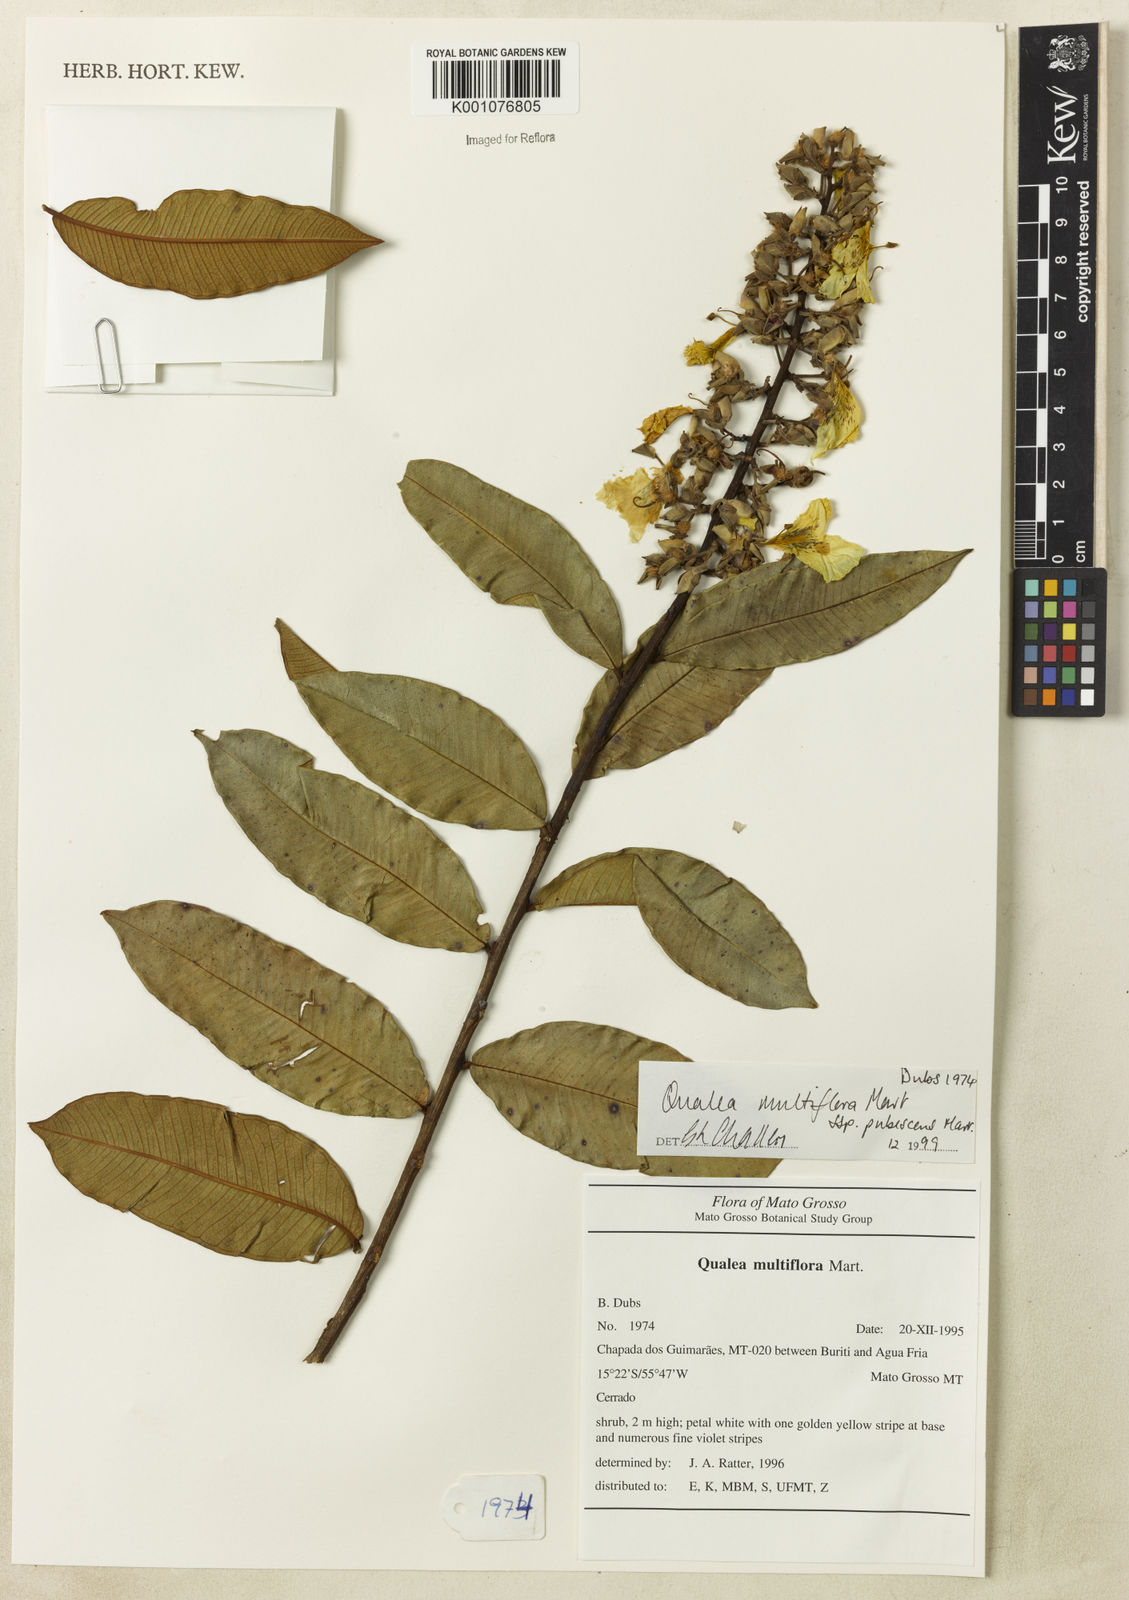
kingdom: Plantae
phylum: Tracheophyta
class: Magnoliopsida
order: Myrtales
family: Vochysiaceae
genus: Qualea
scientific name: Qualea multiflora
